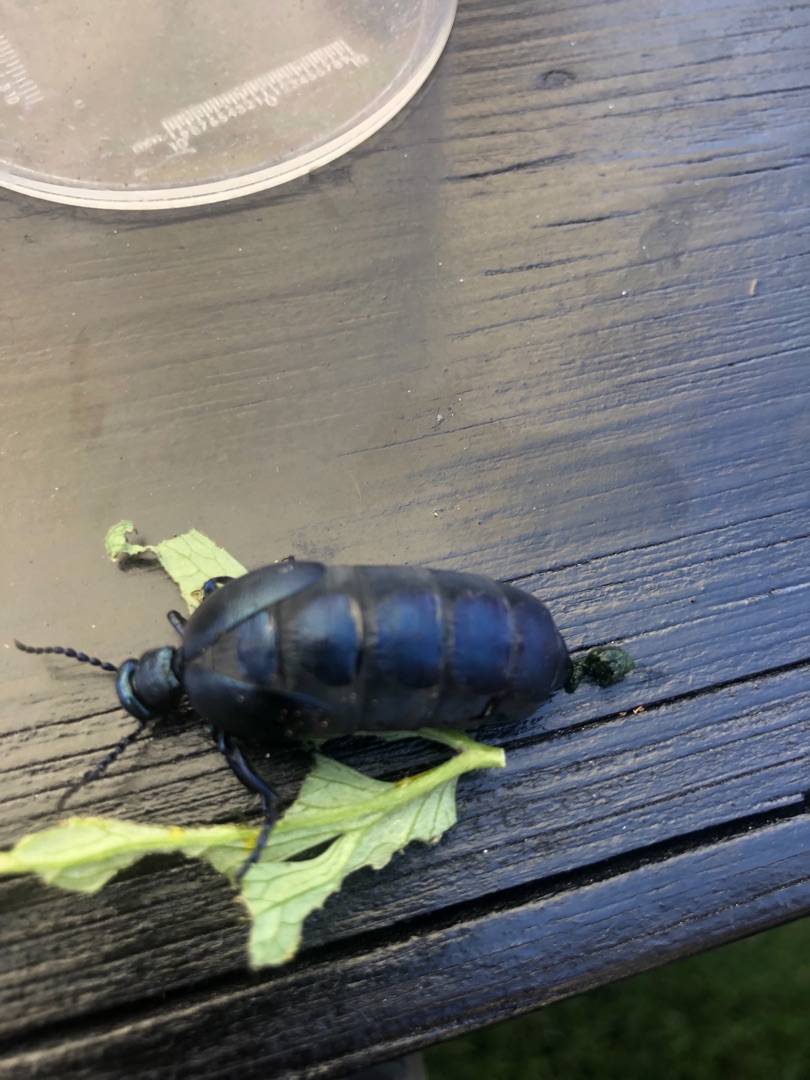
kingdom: Animalia
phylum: Arthropoda
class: Insecta
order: Coleoptera
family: Meloidae
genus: Meloe
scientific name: Meloe violaceus
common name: Blå oliebille
